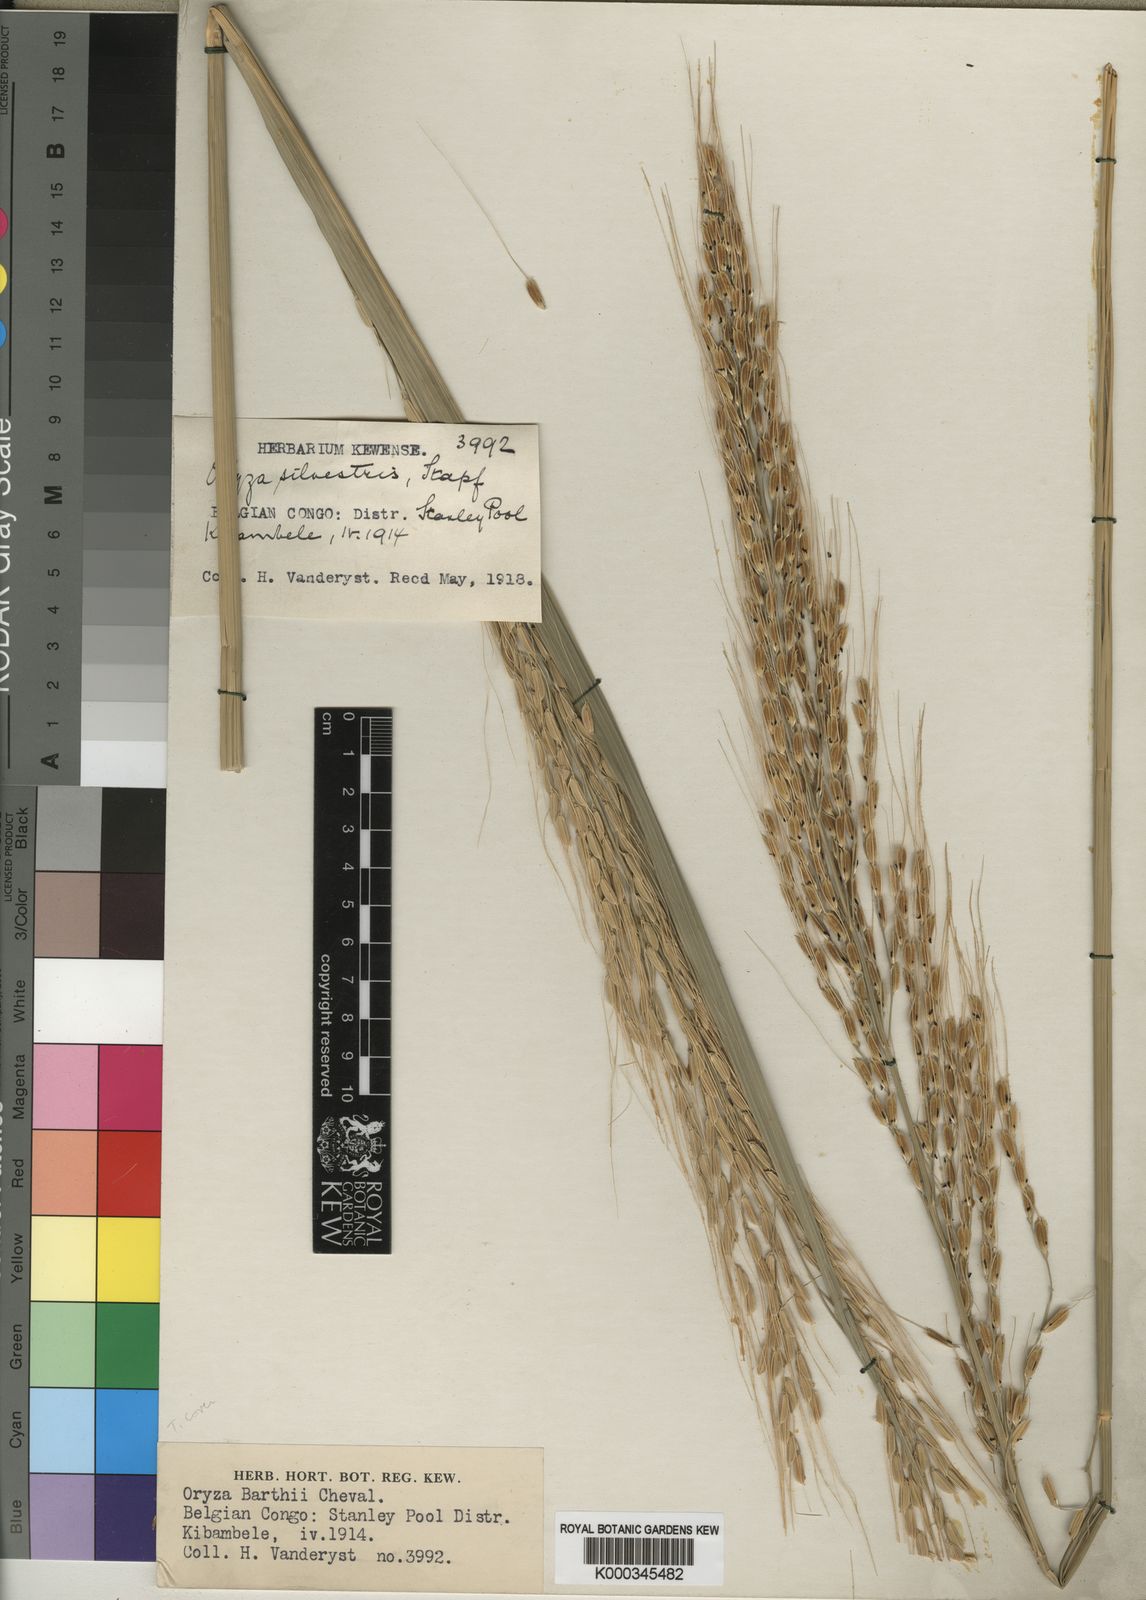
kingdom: Plantae
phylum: Tracheophyta
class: Liliopsida
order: Poales
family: Poaceae
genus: Oryza
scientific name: Oryza longistaminata
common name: Red rice
